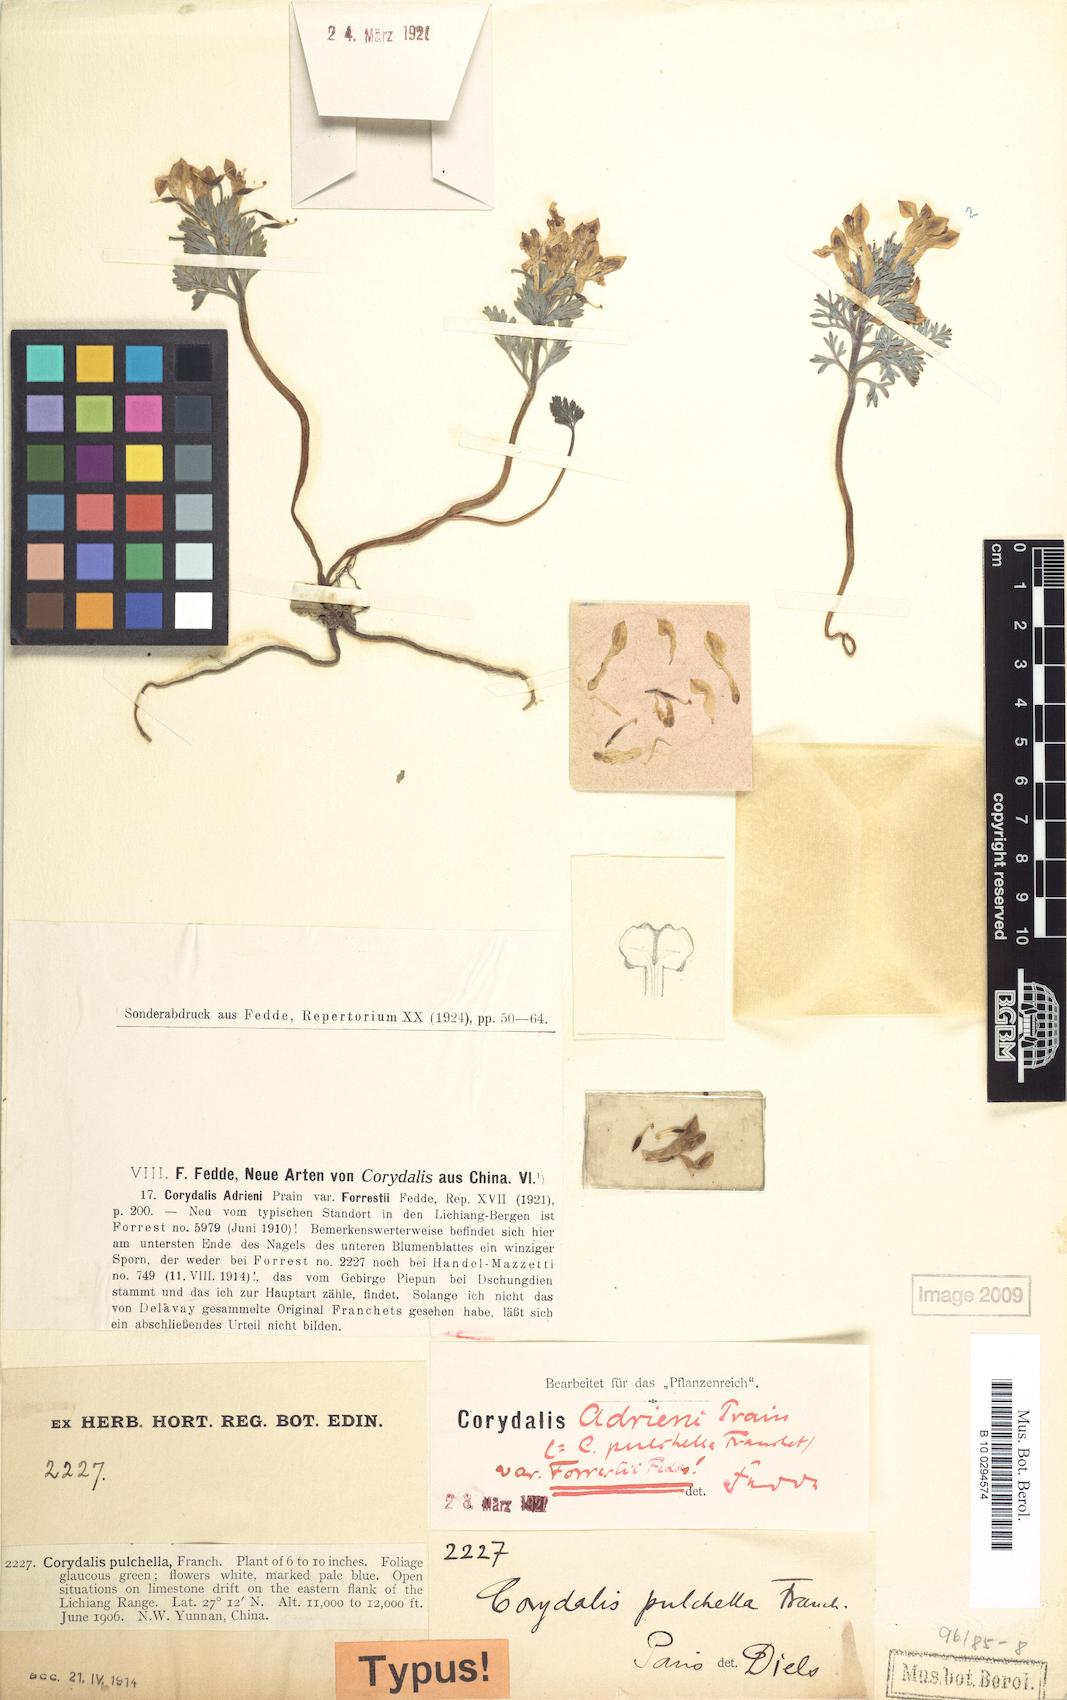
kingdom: Plantae
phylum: Tracheophyta
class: Magnoliopsida
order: Ranunculales
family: Papaveraceae
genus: Corydalis
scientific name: Corydalis melanochlora
